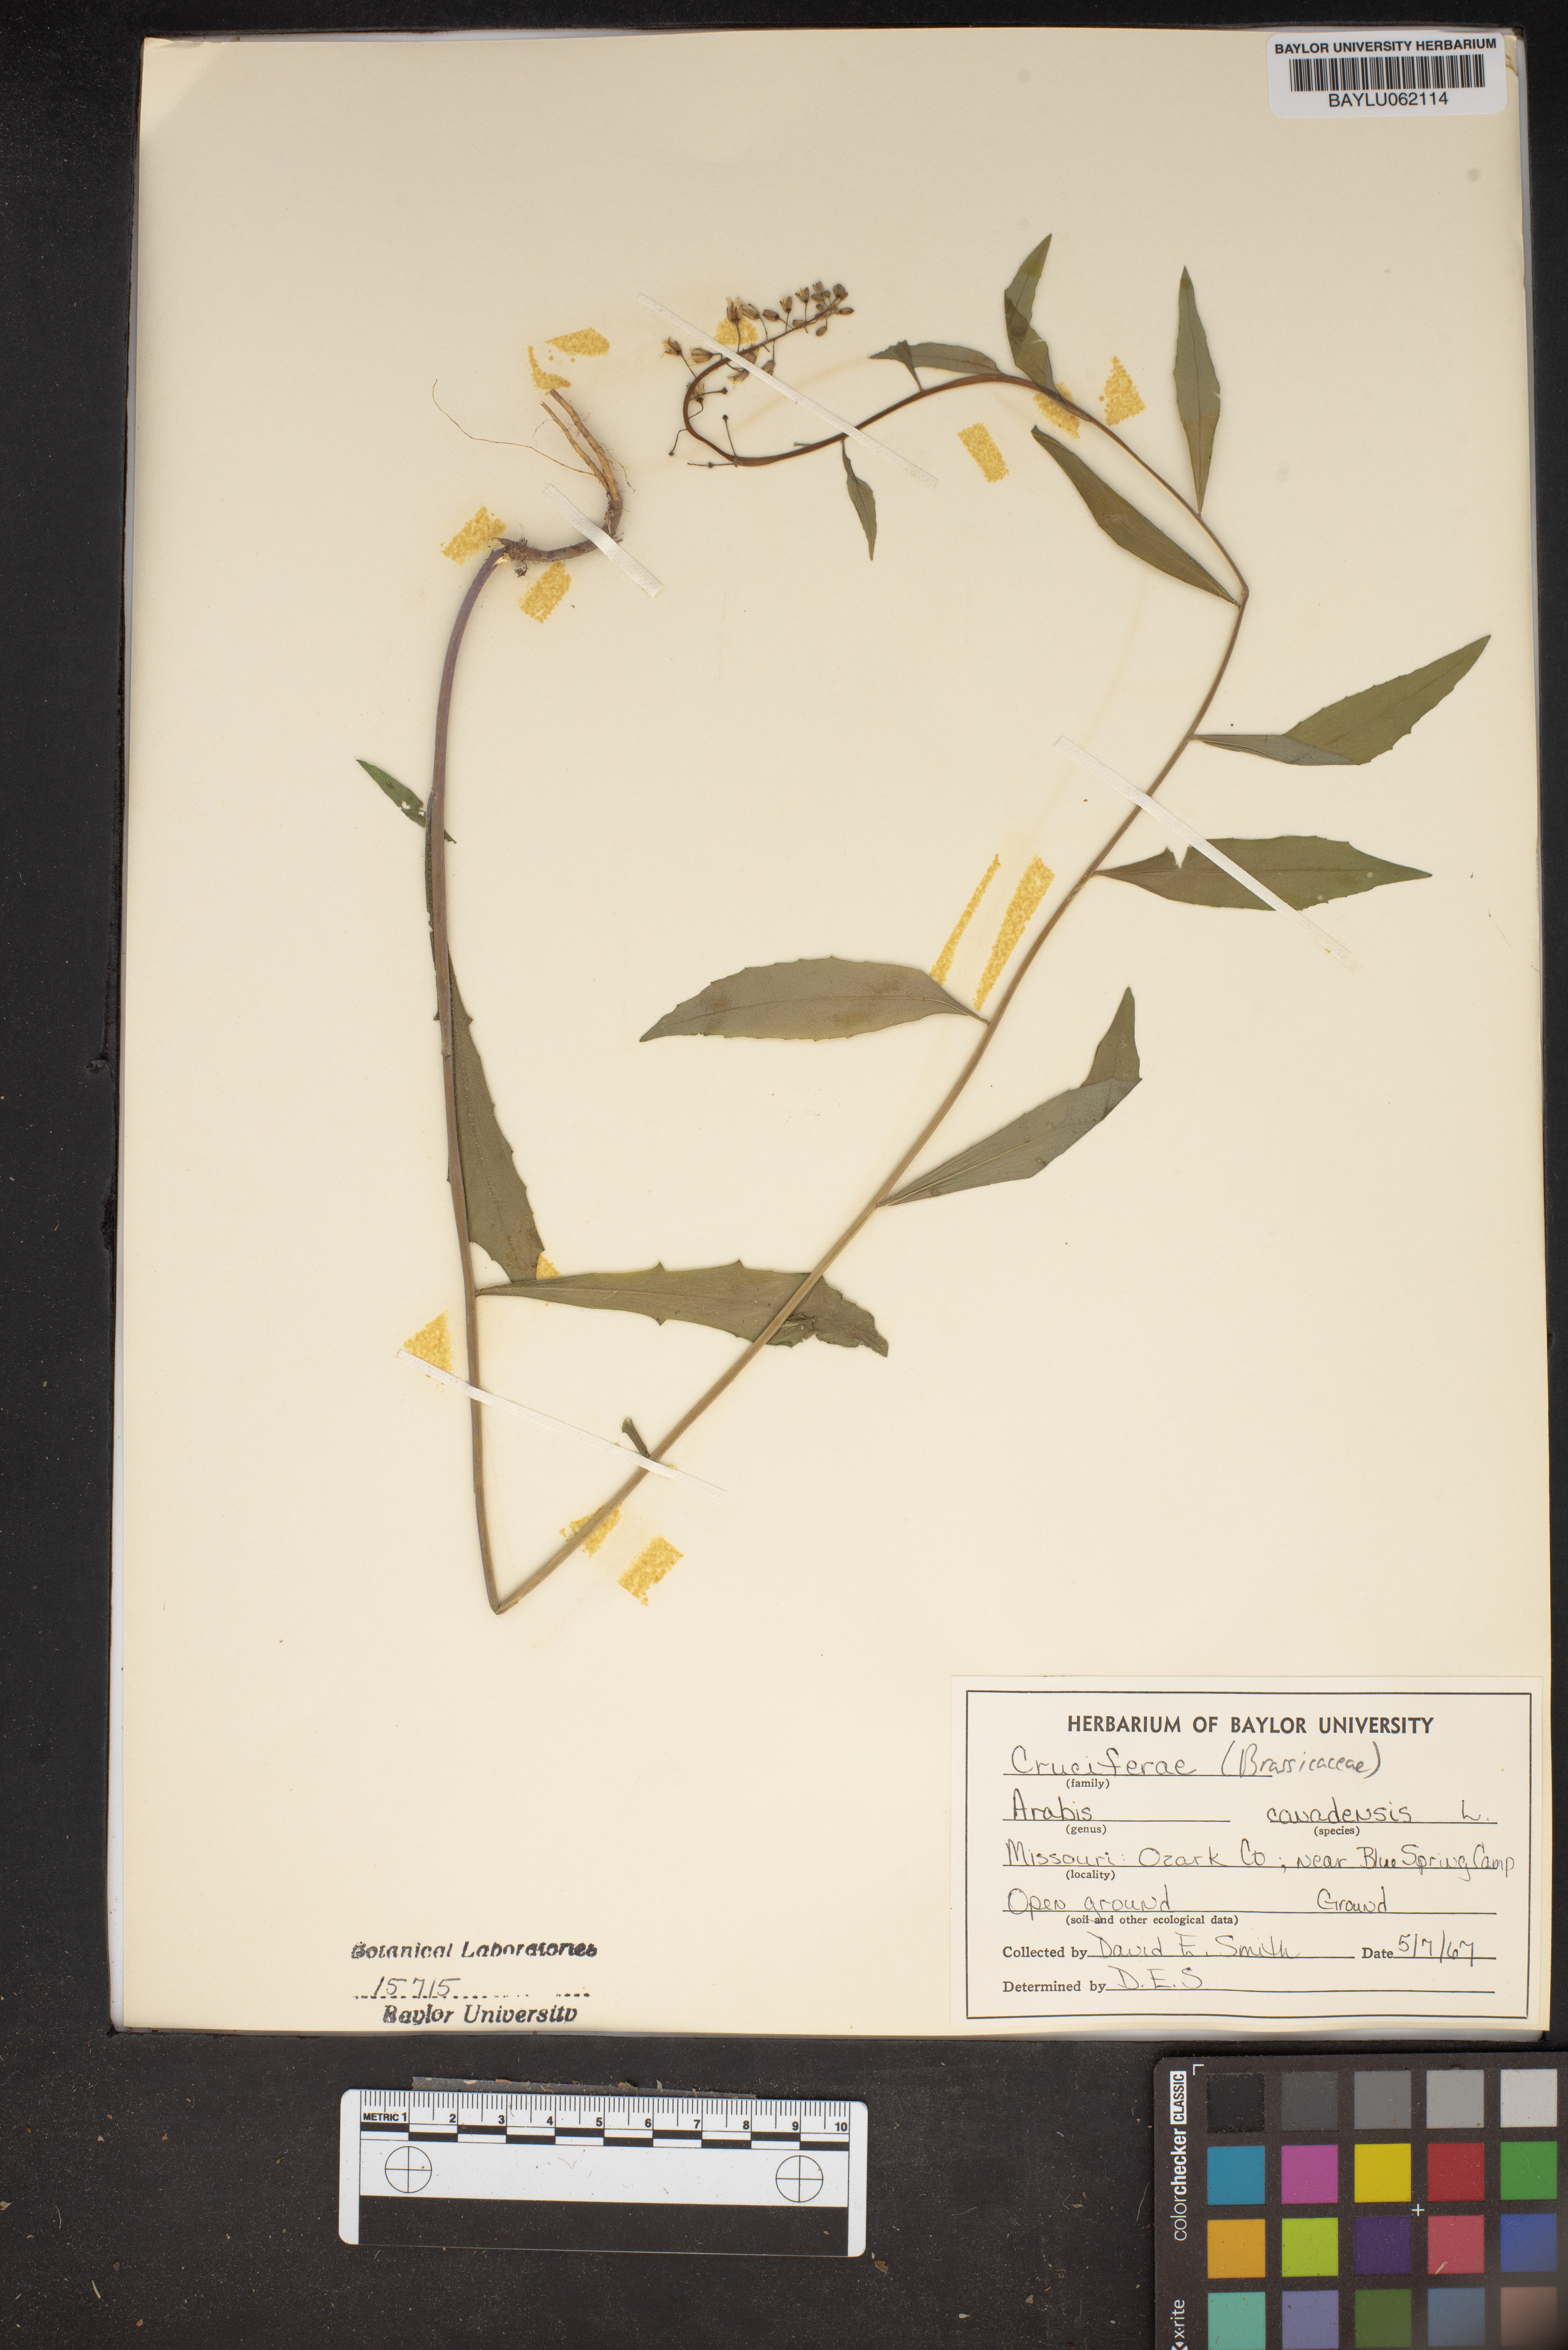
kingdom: Plantae
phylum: Tracheophyta
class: Magnoliopsida
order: Brassicales
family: Brassicaceae
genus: Borodinia
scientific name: Borodinia canadensis
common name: Sicklepod
